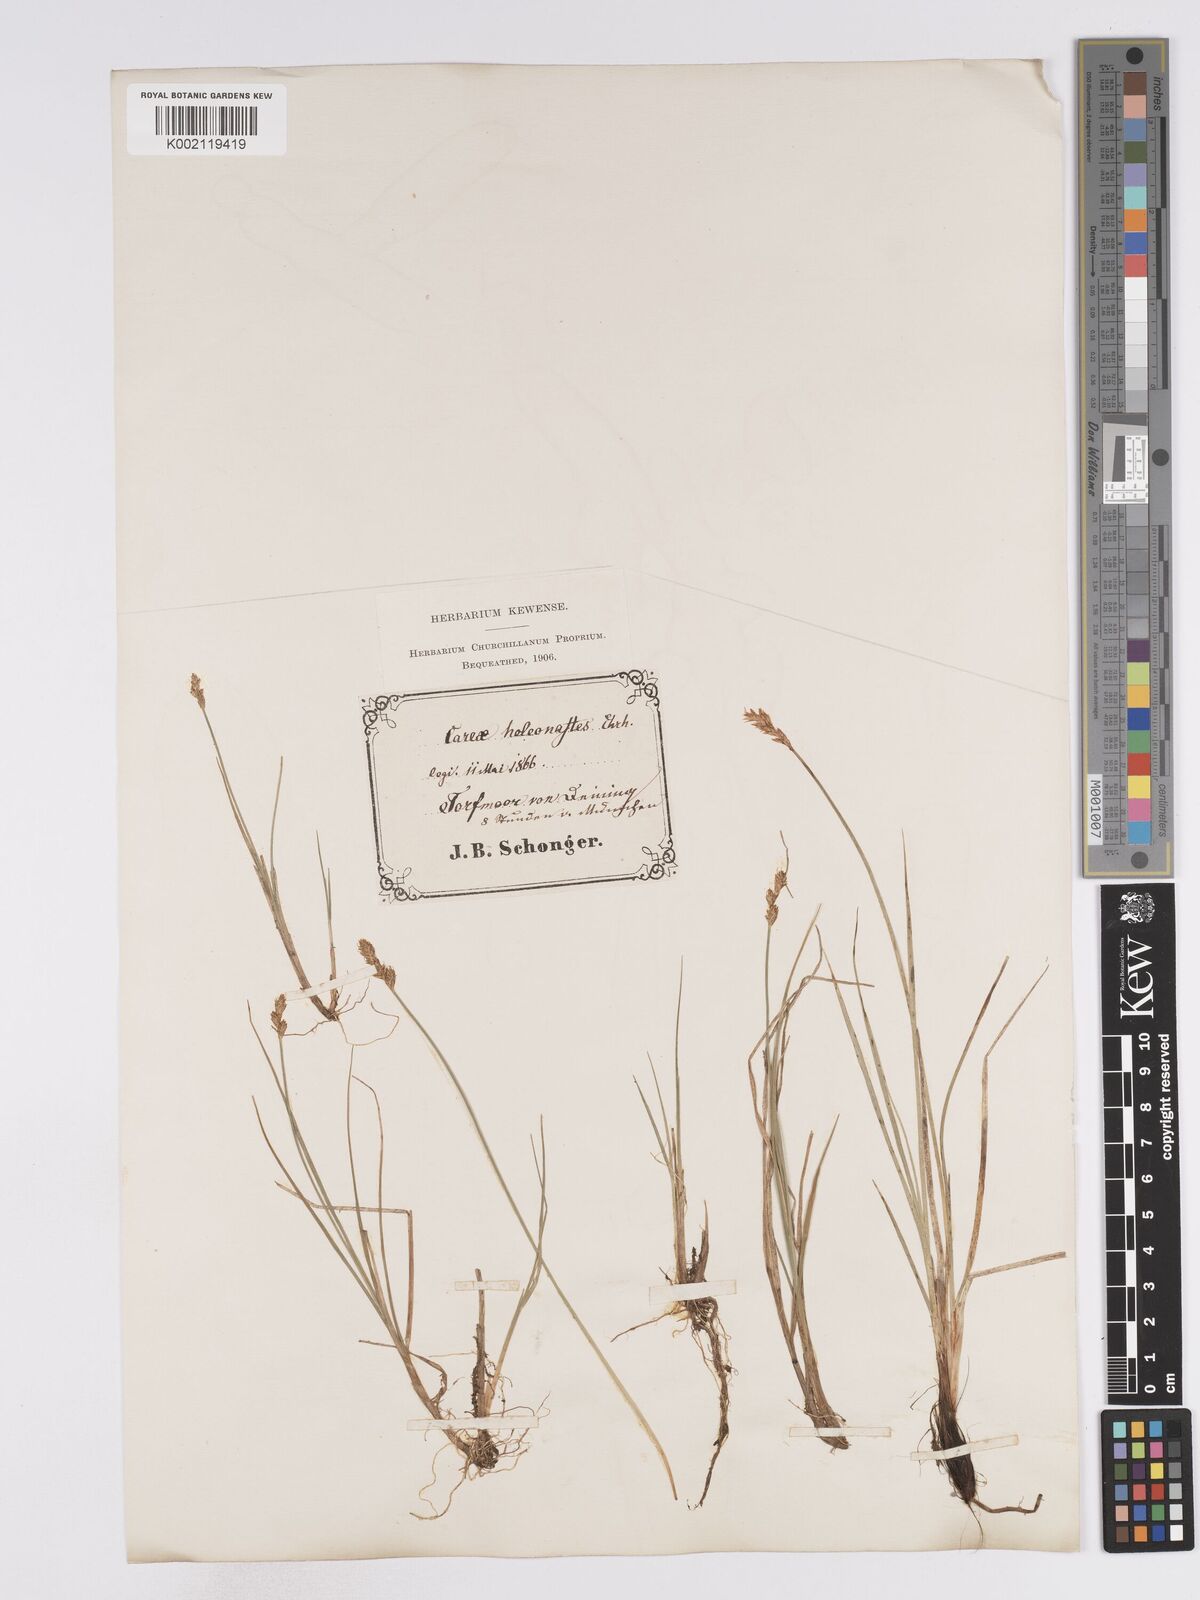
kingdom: Plantae
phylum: Tracheophyta
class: Liliopsida
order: Poales
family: Cyperaceae
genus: Carex
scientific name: Carex heleonastes
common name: Hudson bay sedge
